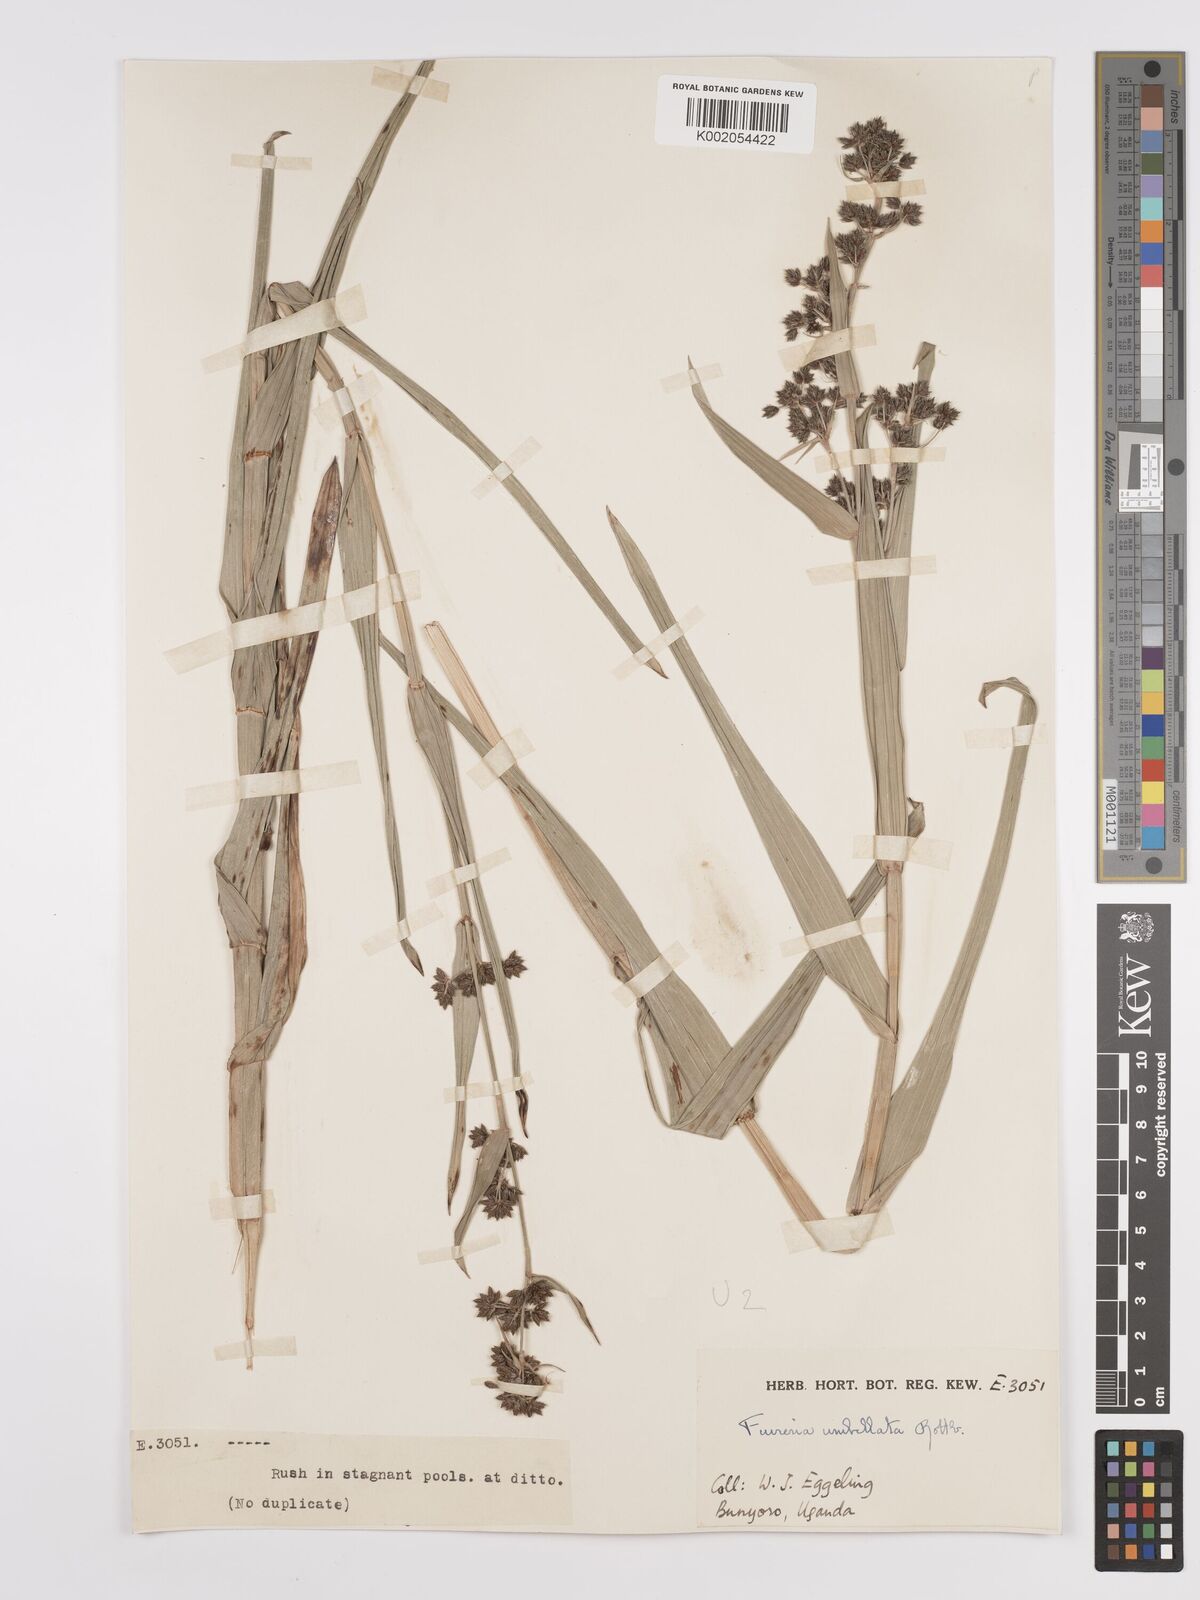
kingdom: Plantae
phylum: Tracheophyta
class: Liliopsida
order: Poales
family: Cyperaceae
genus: Fuirena
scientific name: Fuirena umbellata
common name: Yefen
